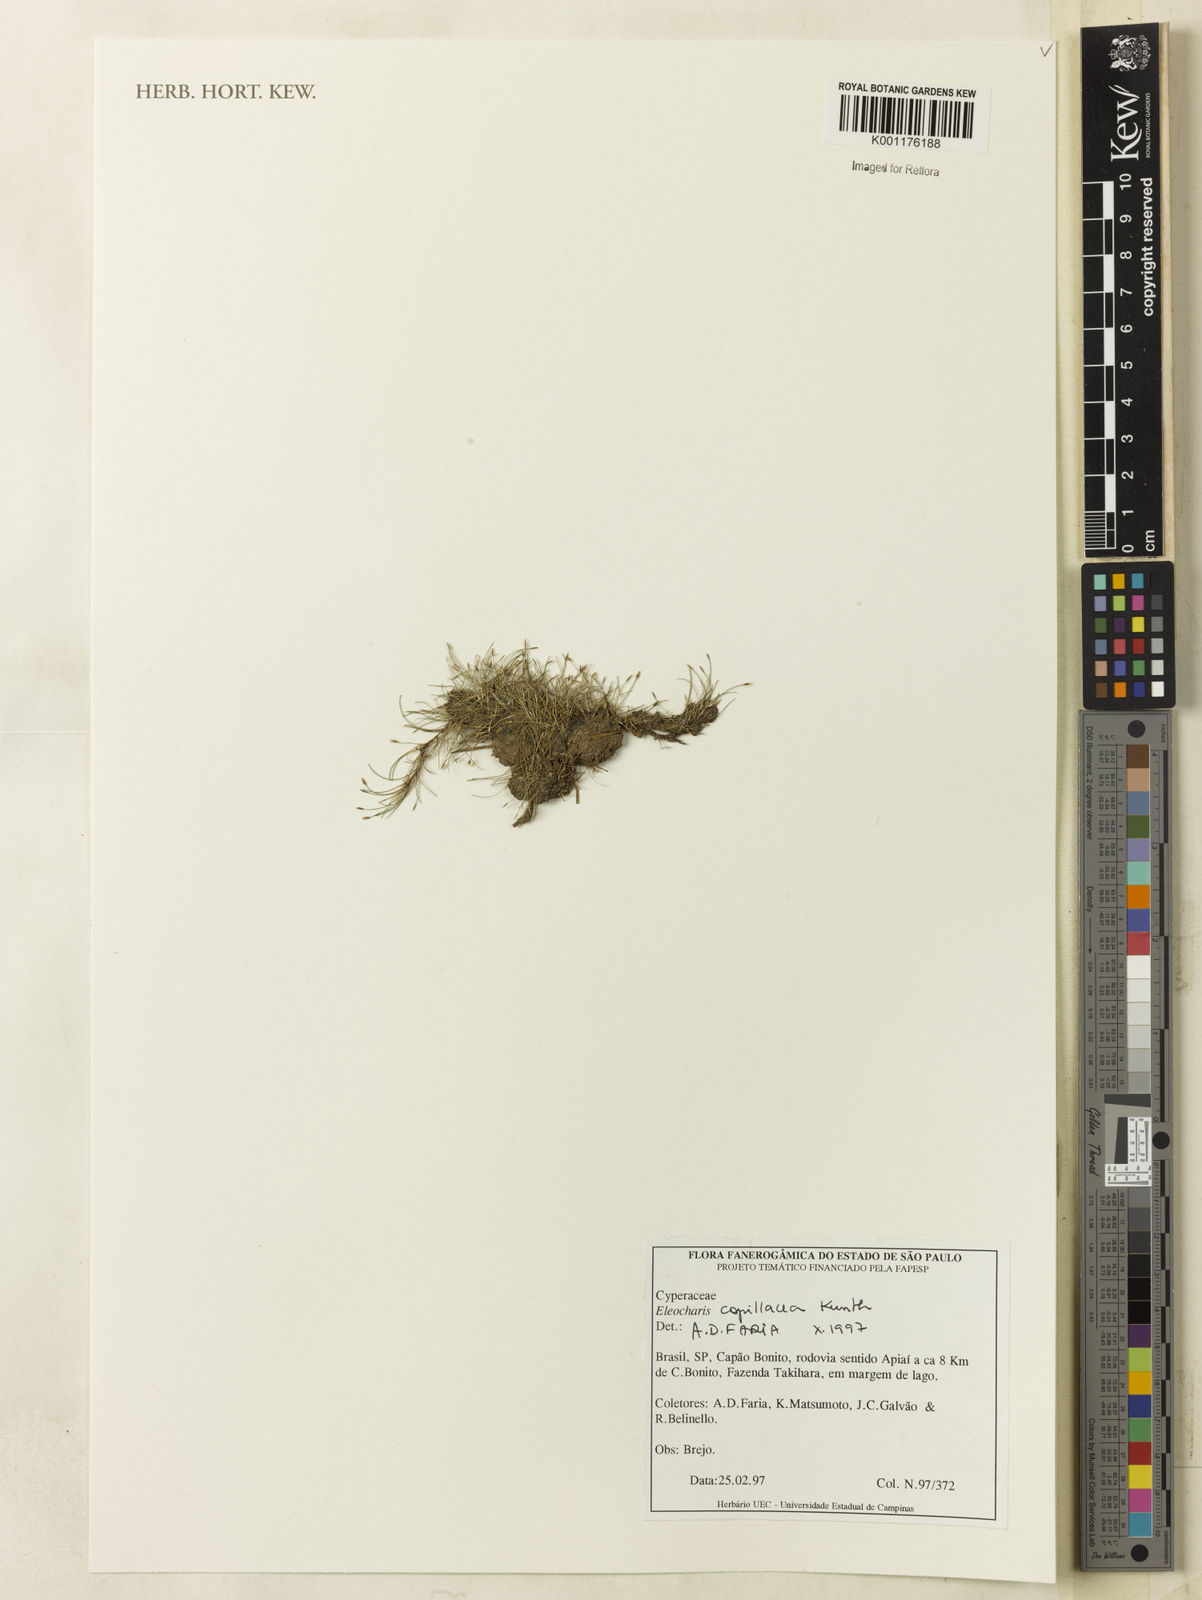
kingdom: Plantae
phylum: Tracheophyta
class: Liliopsida
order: Poales
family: Cyperaceae
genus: Eleocharis
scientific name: Eleocharis capillacea
